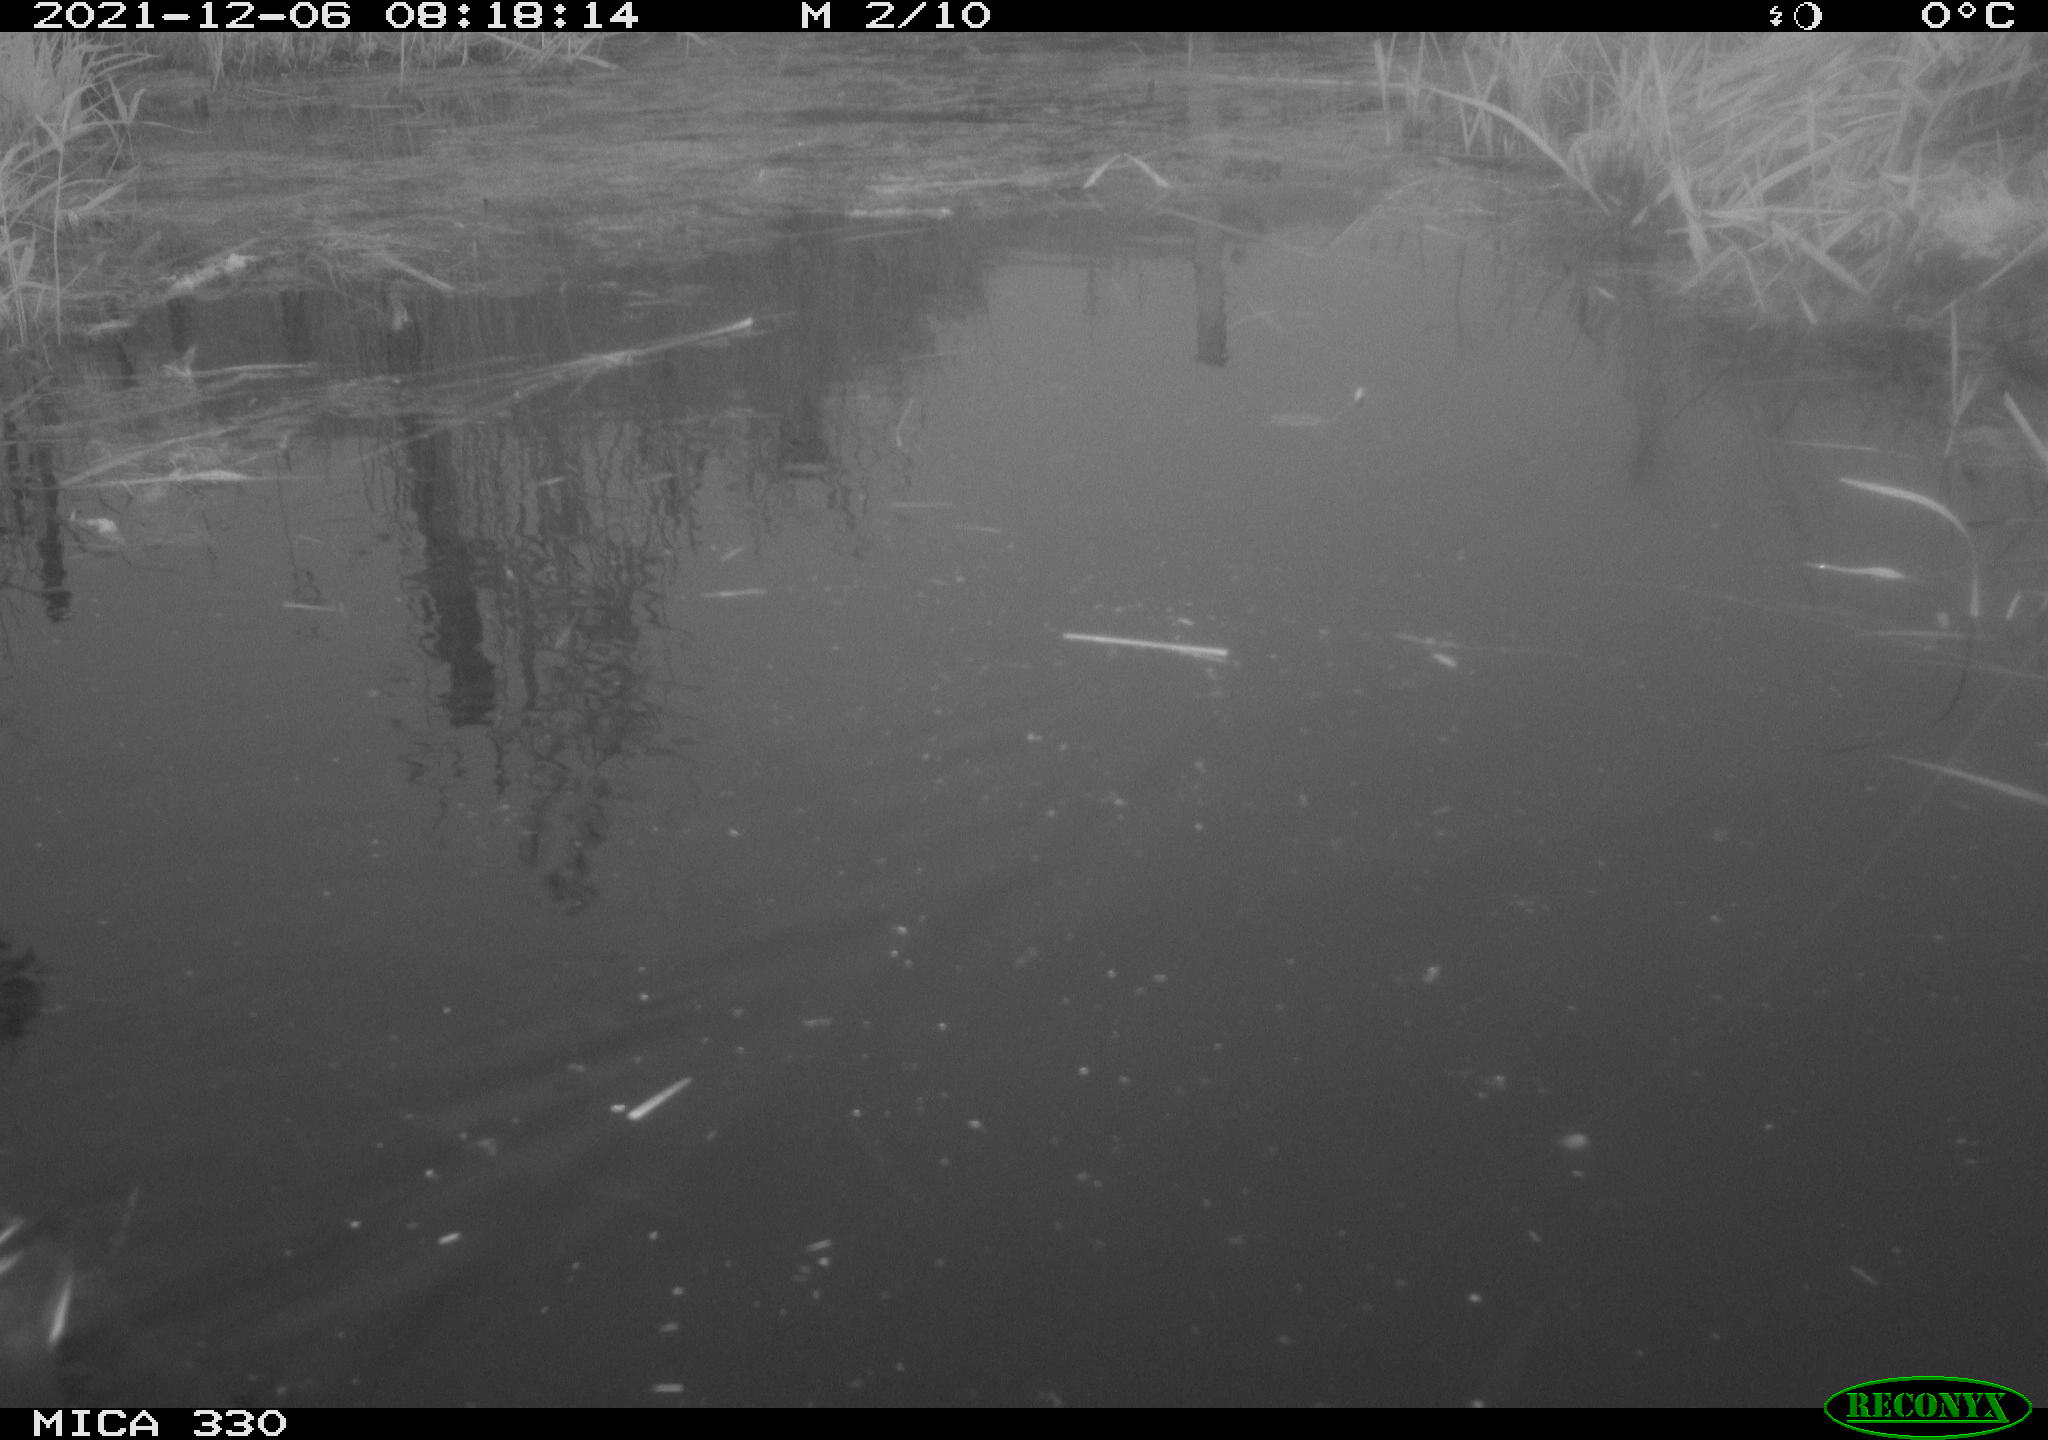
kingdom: Animalia
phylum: Chordata
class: Aves
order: Gruiformes
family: Rallidae
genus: Gallinula
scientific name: Gallinula chloropus
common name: Common moorhen
